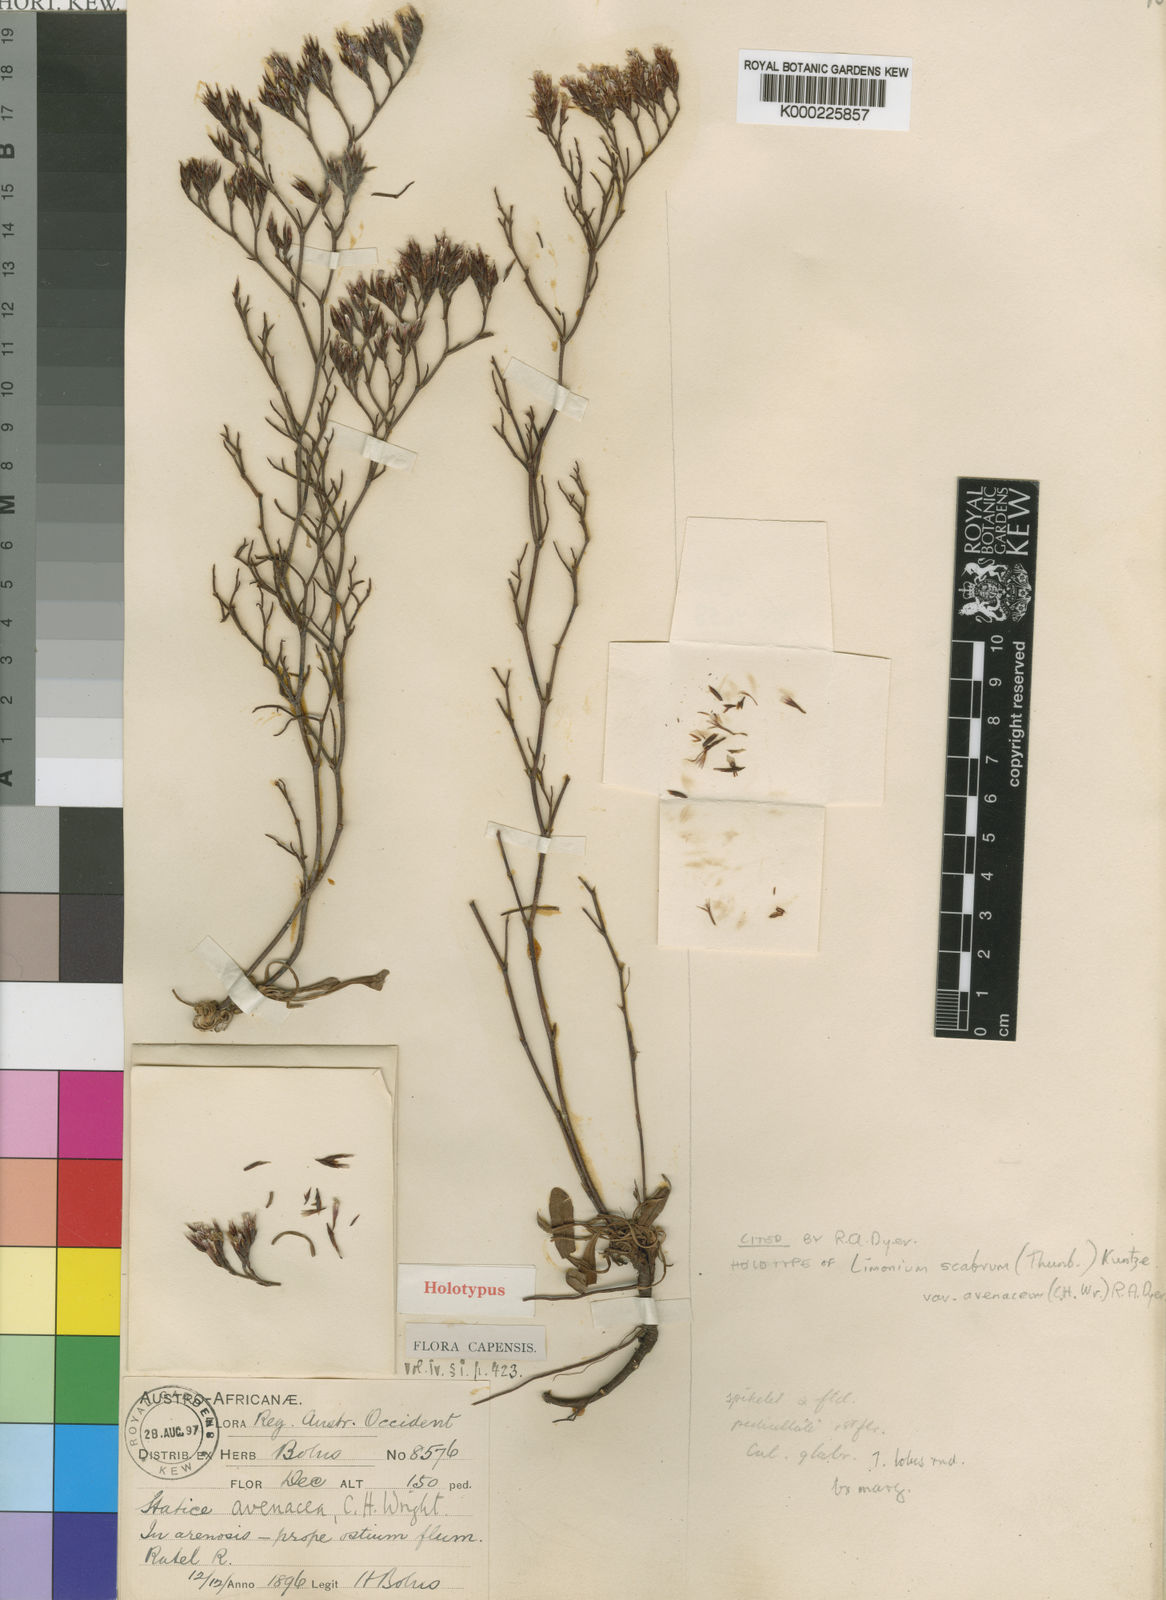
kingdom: Plantae
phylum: Tracheophyta
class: Magnoliopsida
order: Caryophyllales
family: Plumbaginaceae
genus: Limonium
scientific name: Limonium scabrum
